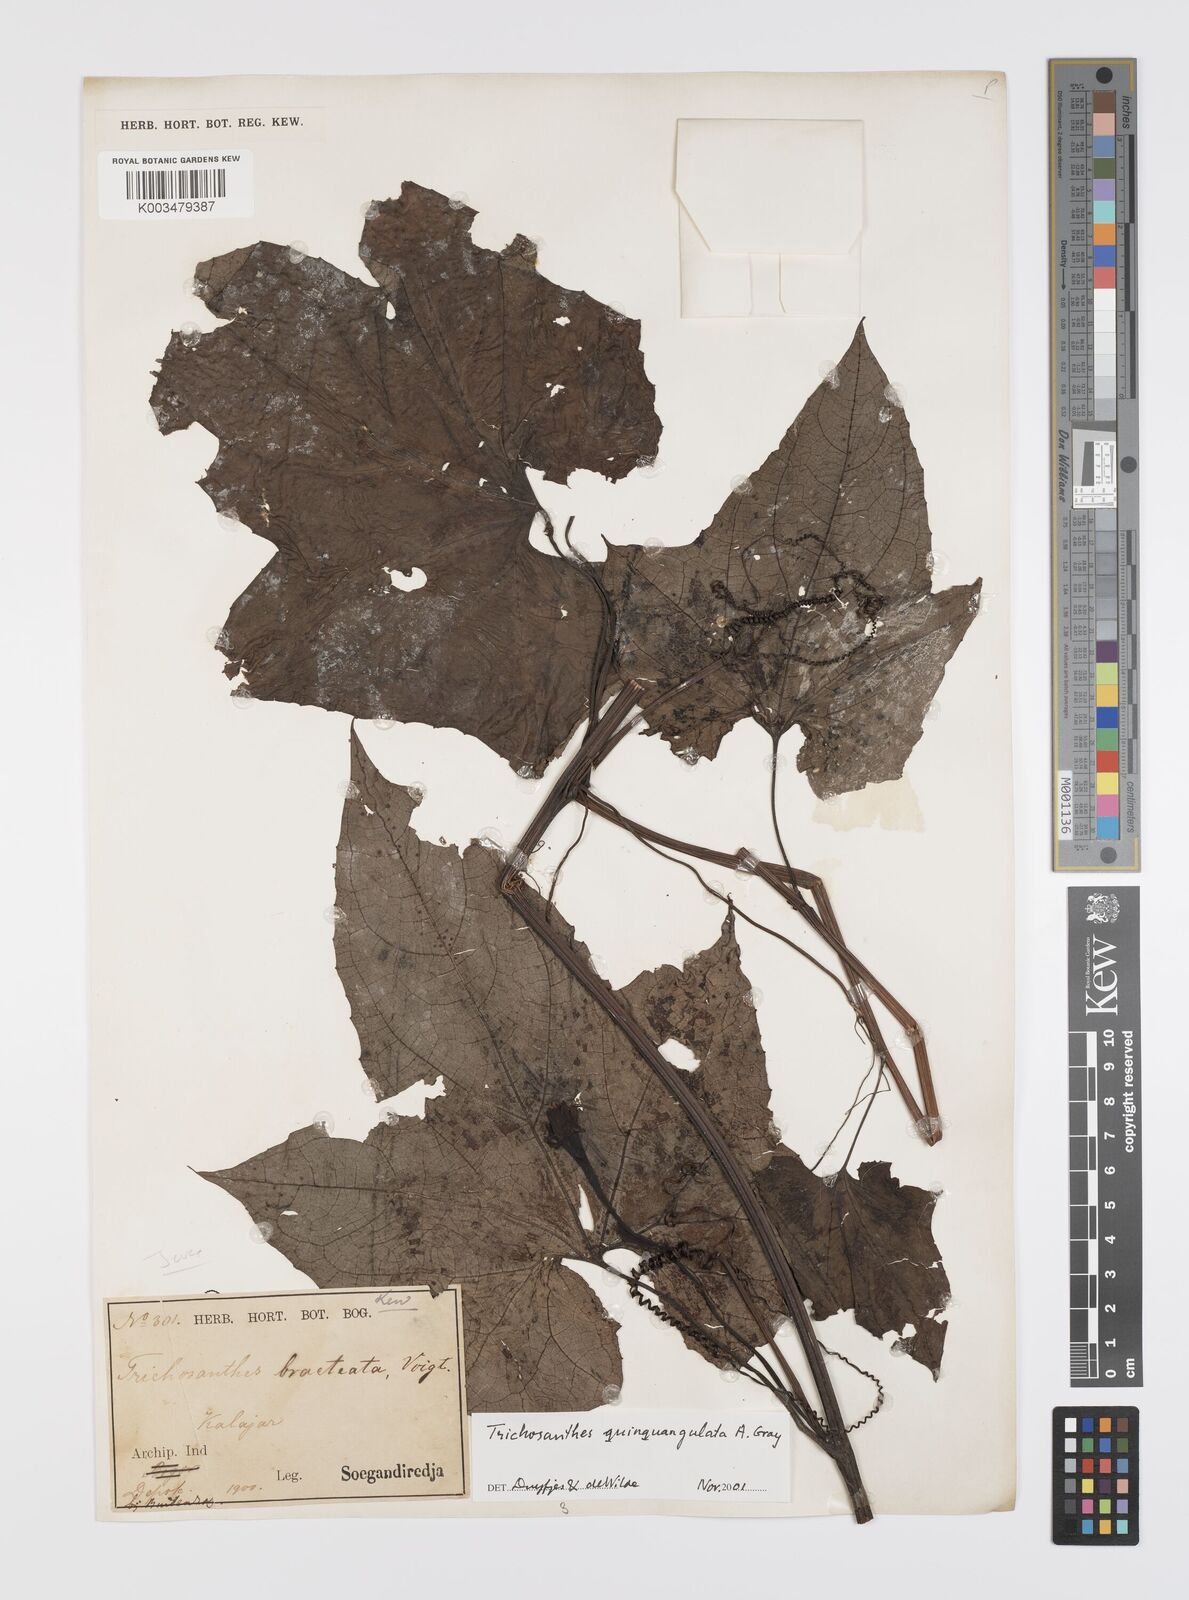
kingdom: Plantae
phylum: Tracheophyta
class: Magnoliopsida
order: Cucurbitales
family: Cucurbitaceae
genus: Trichosanthes
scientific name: Trichosanthes tricuspidata
